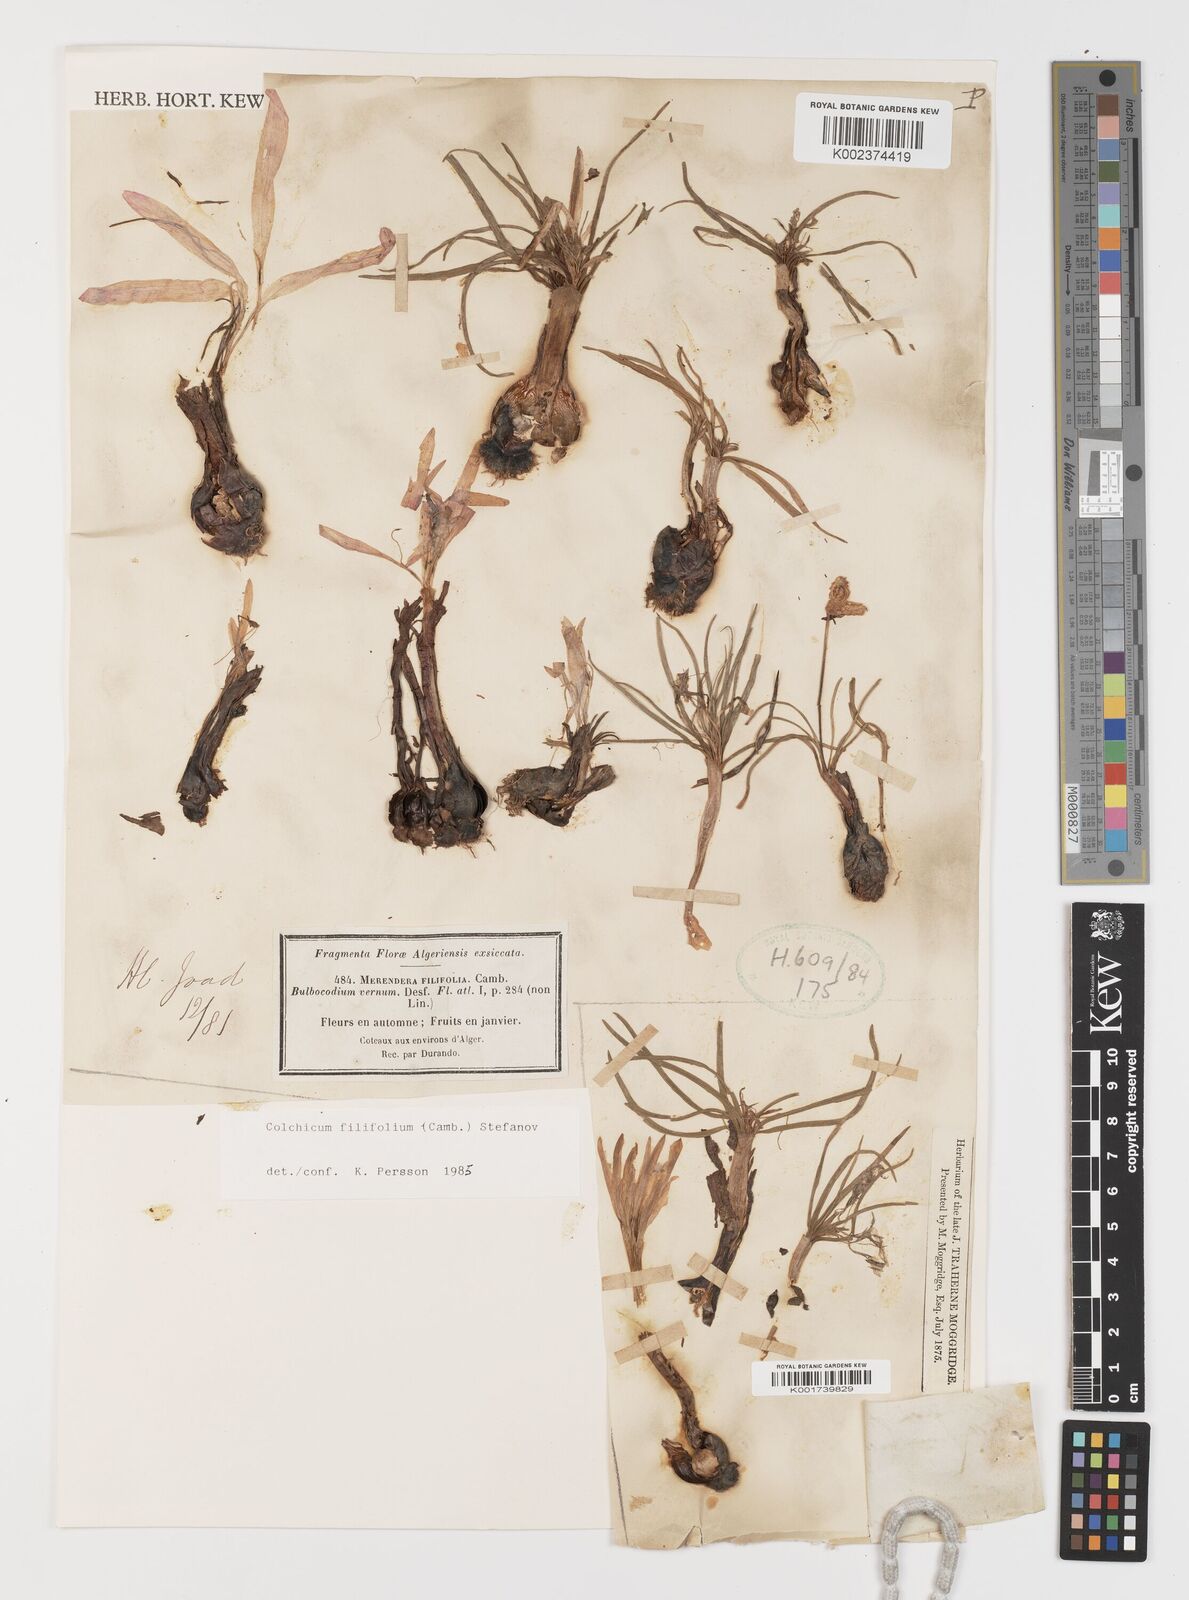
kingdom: Plantae
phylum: Tracheophyta
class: Liliopsida
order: Liliales
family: Colchicaceae
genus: Colchicum
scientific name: Colchicum filifolium
